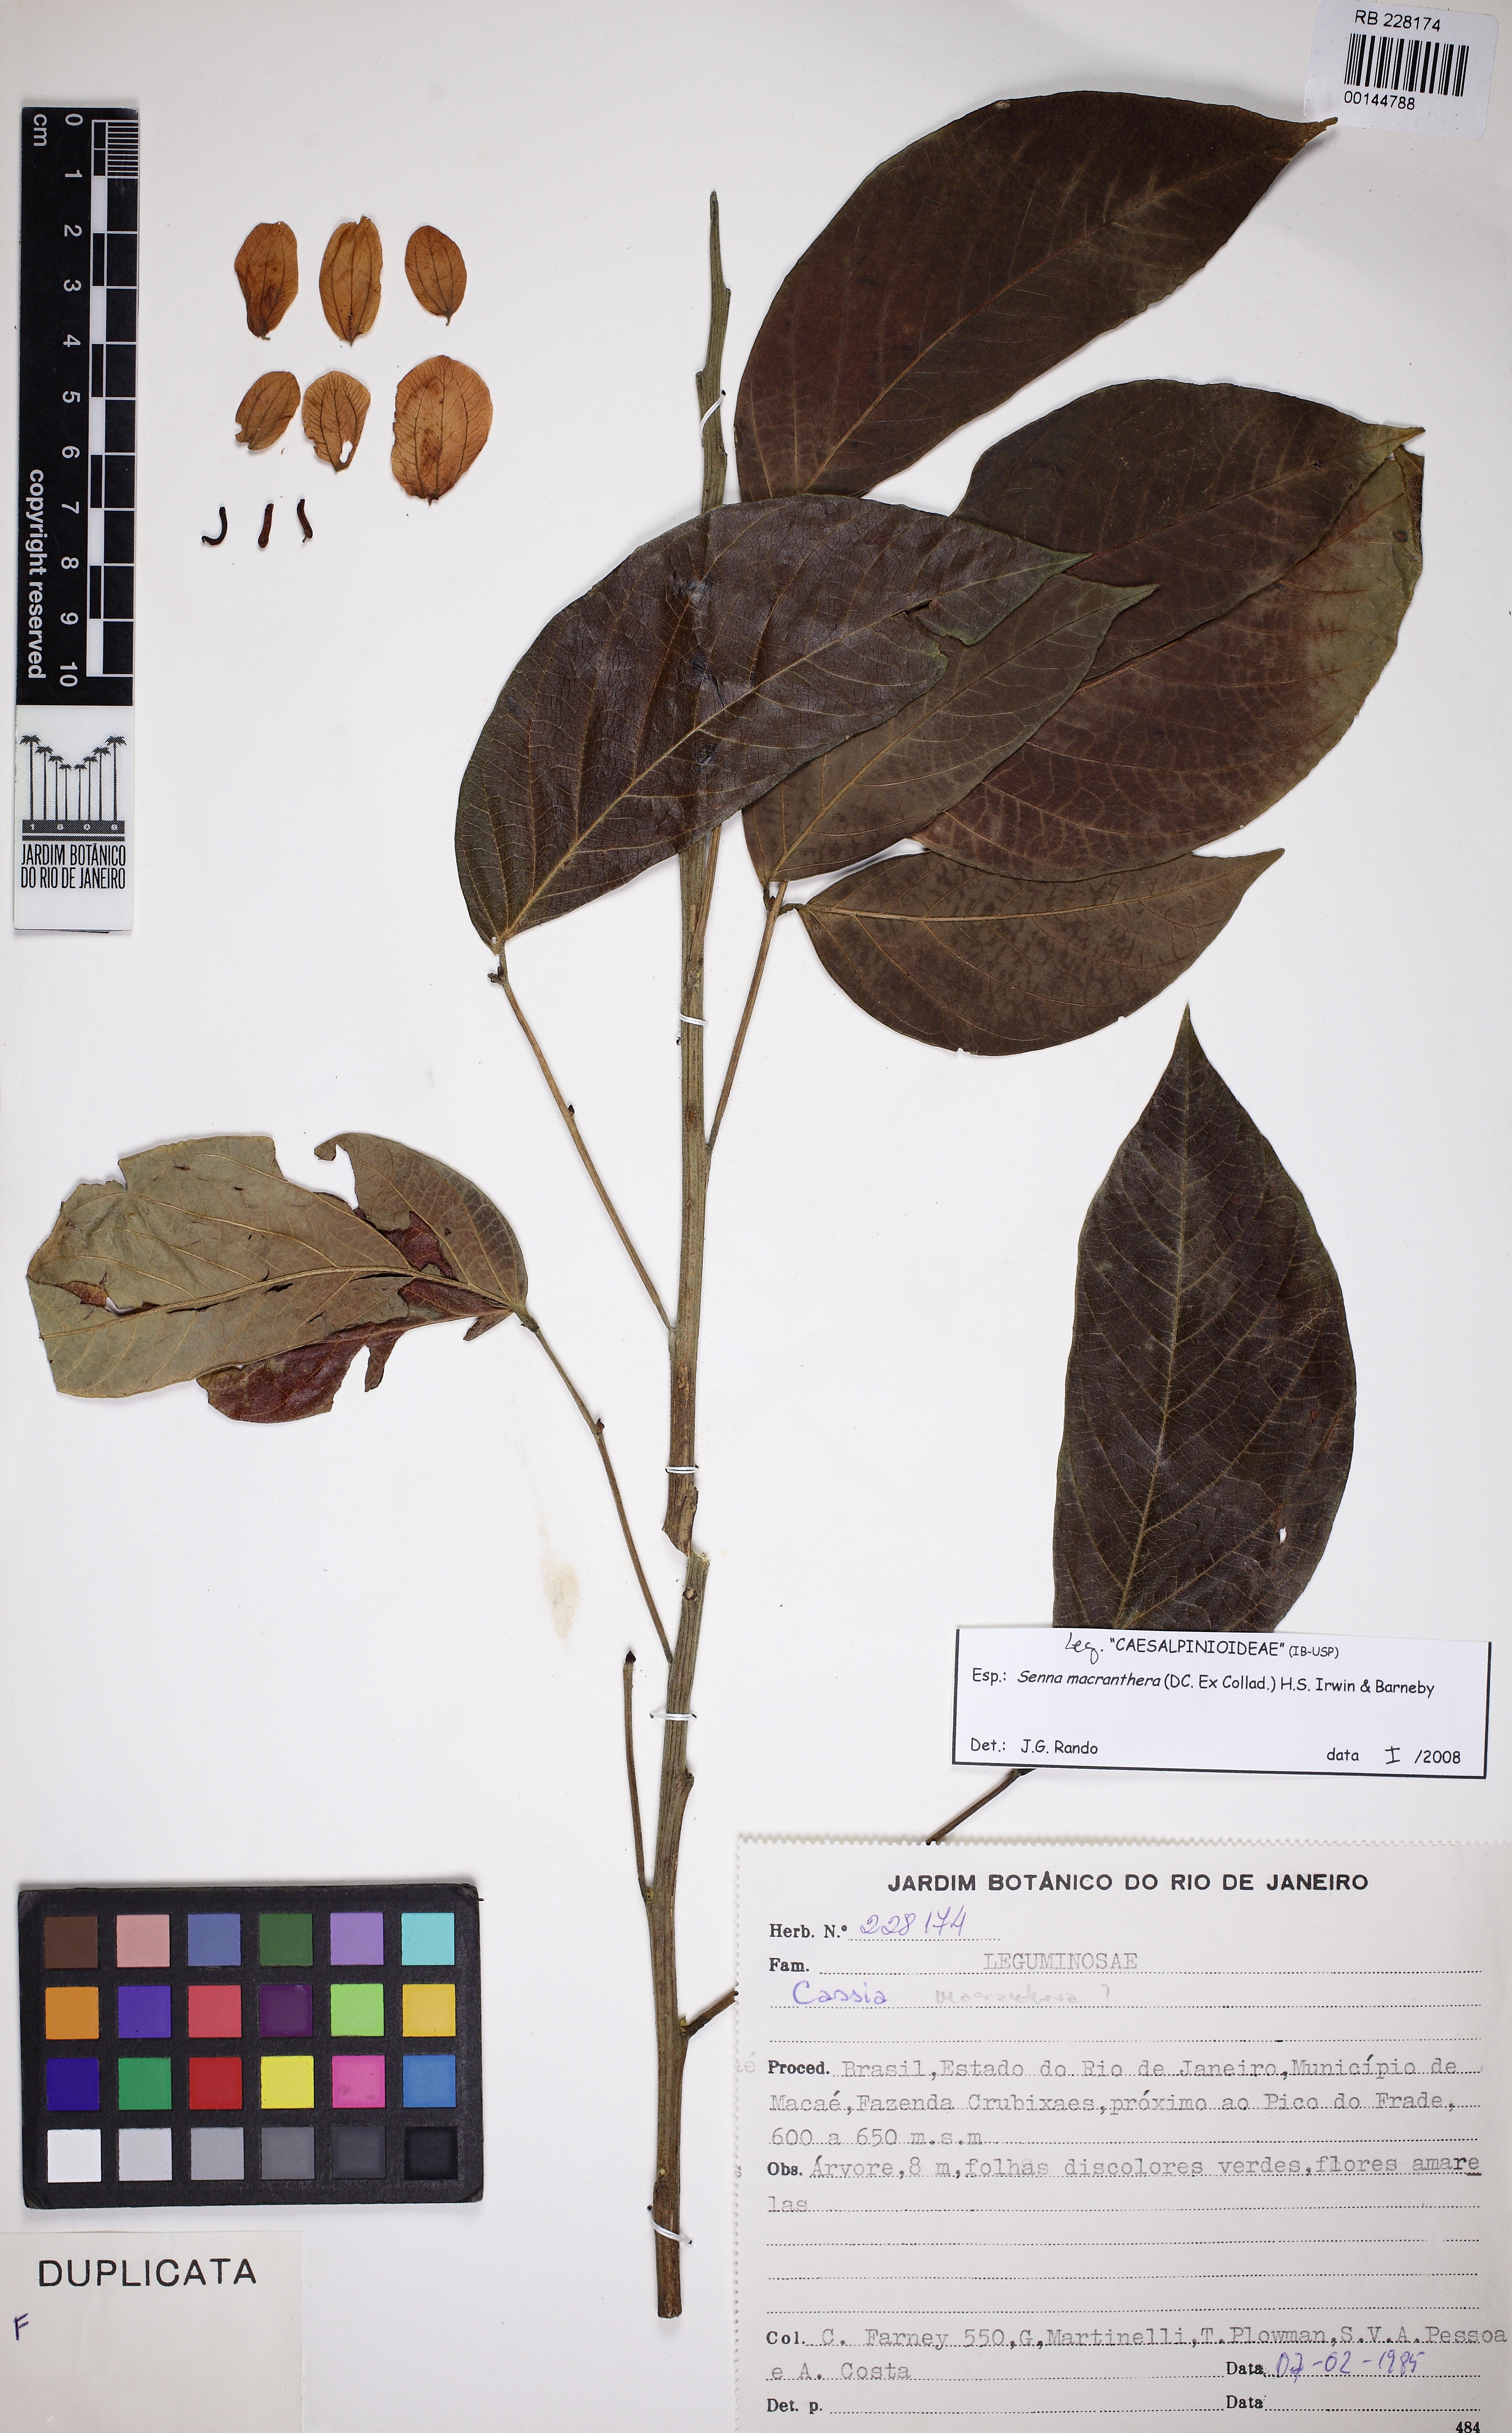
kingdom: Plantae
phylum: Tracheophyta
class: Magnoliopsida
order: Fabales
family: Fabaceae
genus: Senna
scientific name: Senna macranthera
